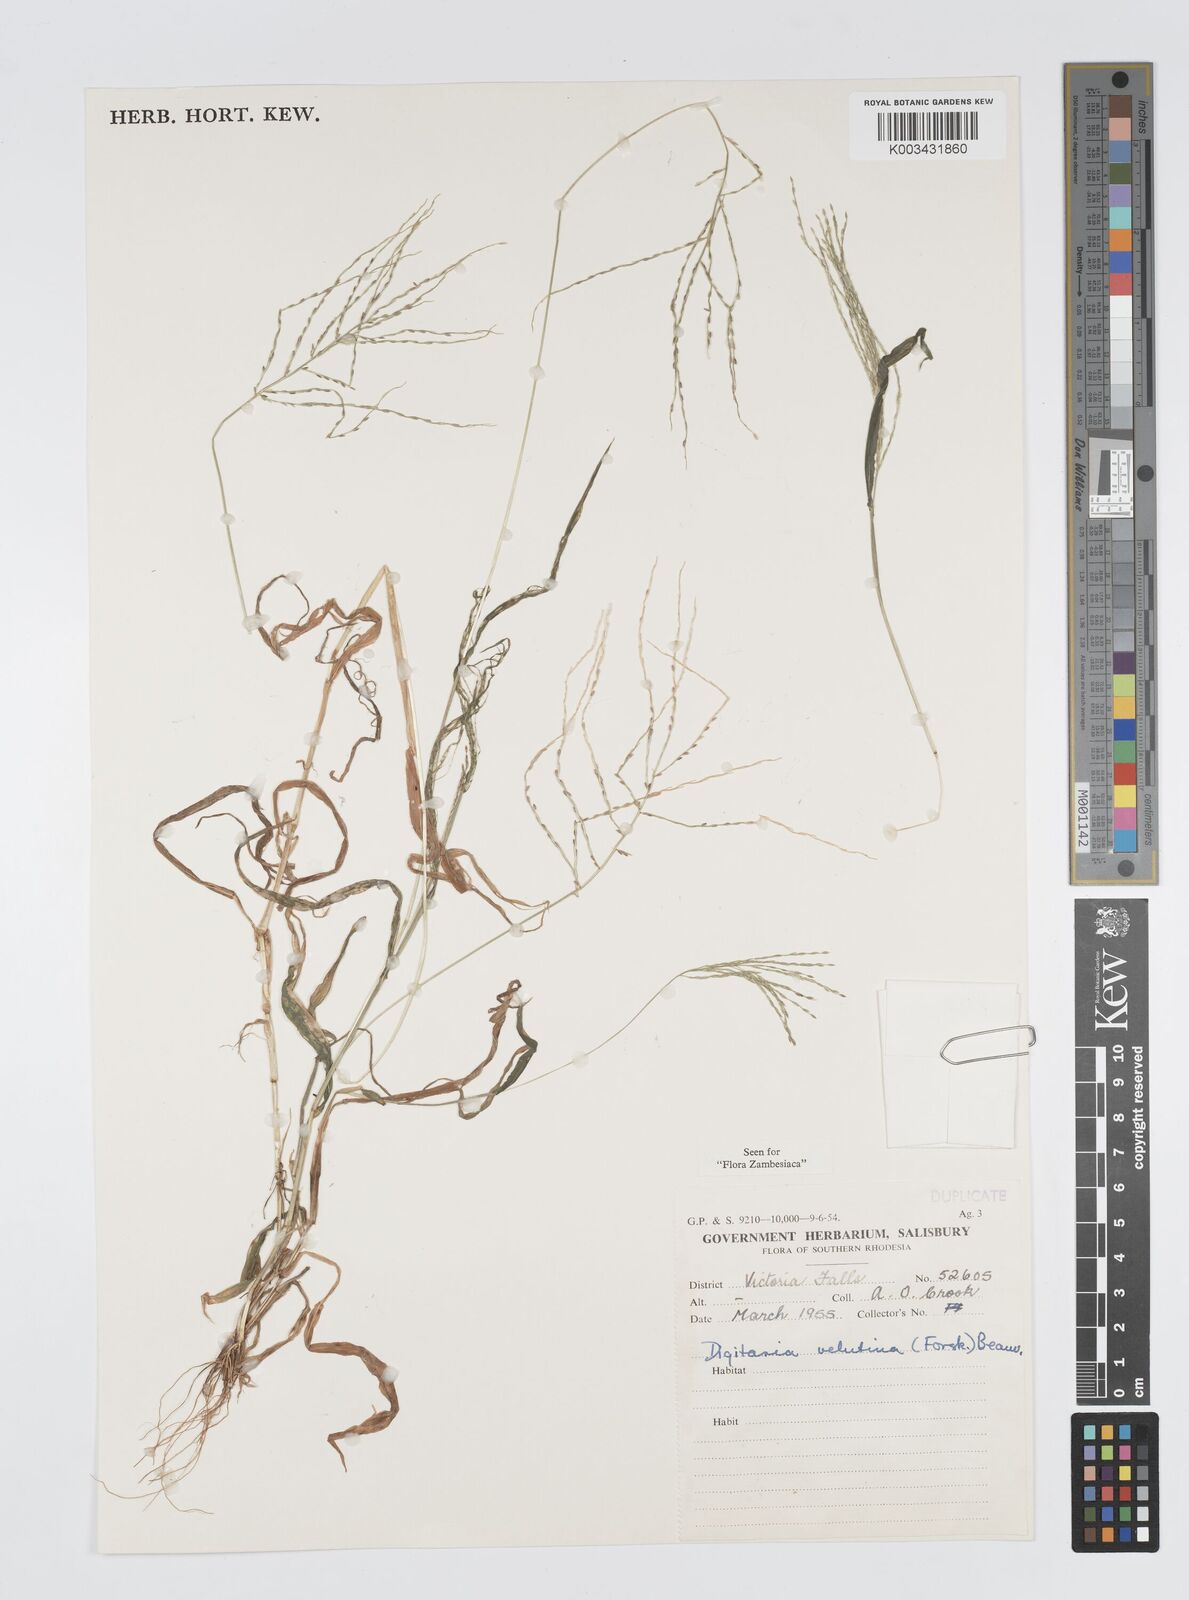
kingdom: Plantae
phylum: Tracheophyta
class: Liliopsida
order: Poales
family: Poaceae
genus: Digitaria
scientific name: Digitaria velutina
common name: Long-plume finger grass
